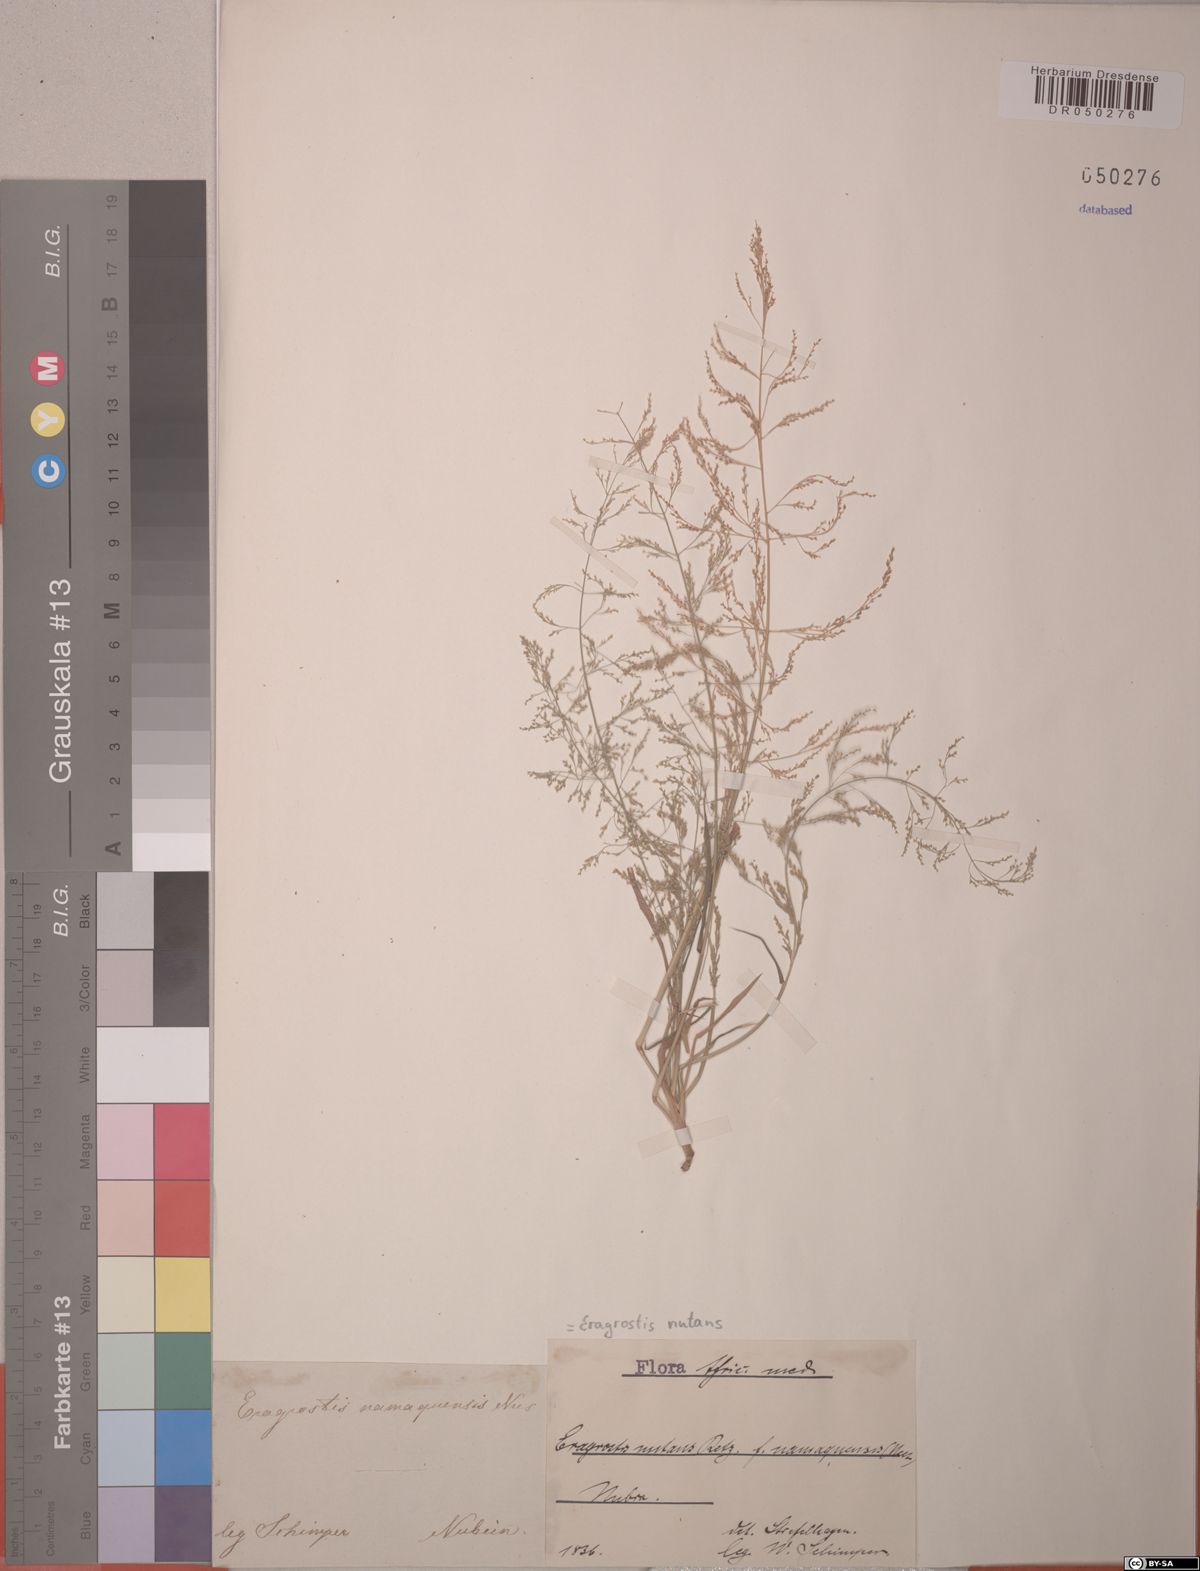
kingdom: Plantae
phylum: Tracheophyta
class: Liliopsida
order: Poales
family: Poaceae
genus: Eragrostis
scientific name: Eragrostis nutans
